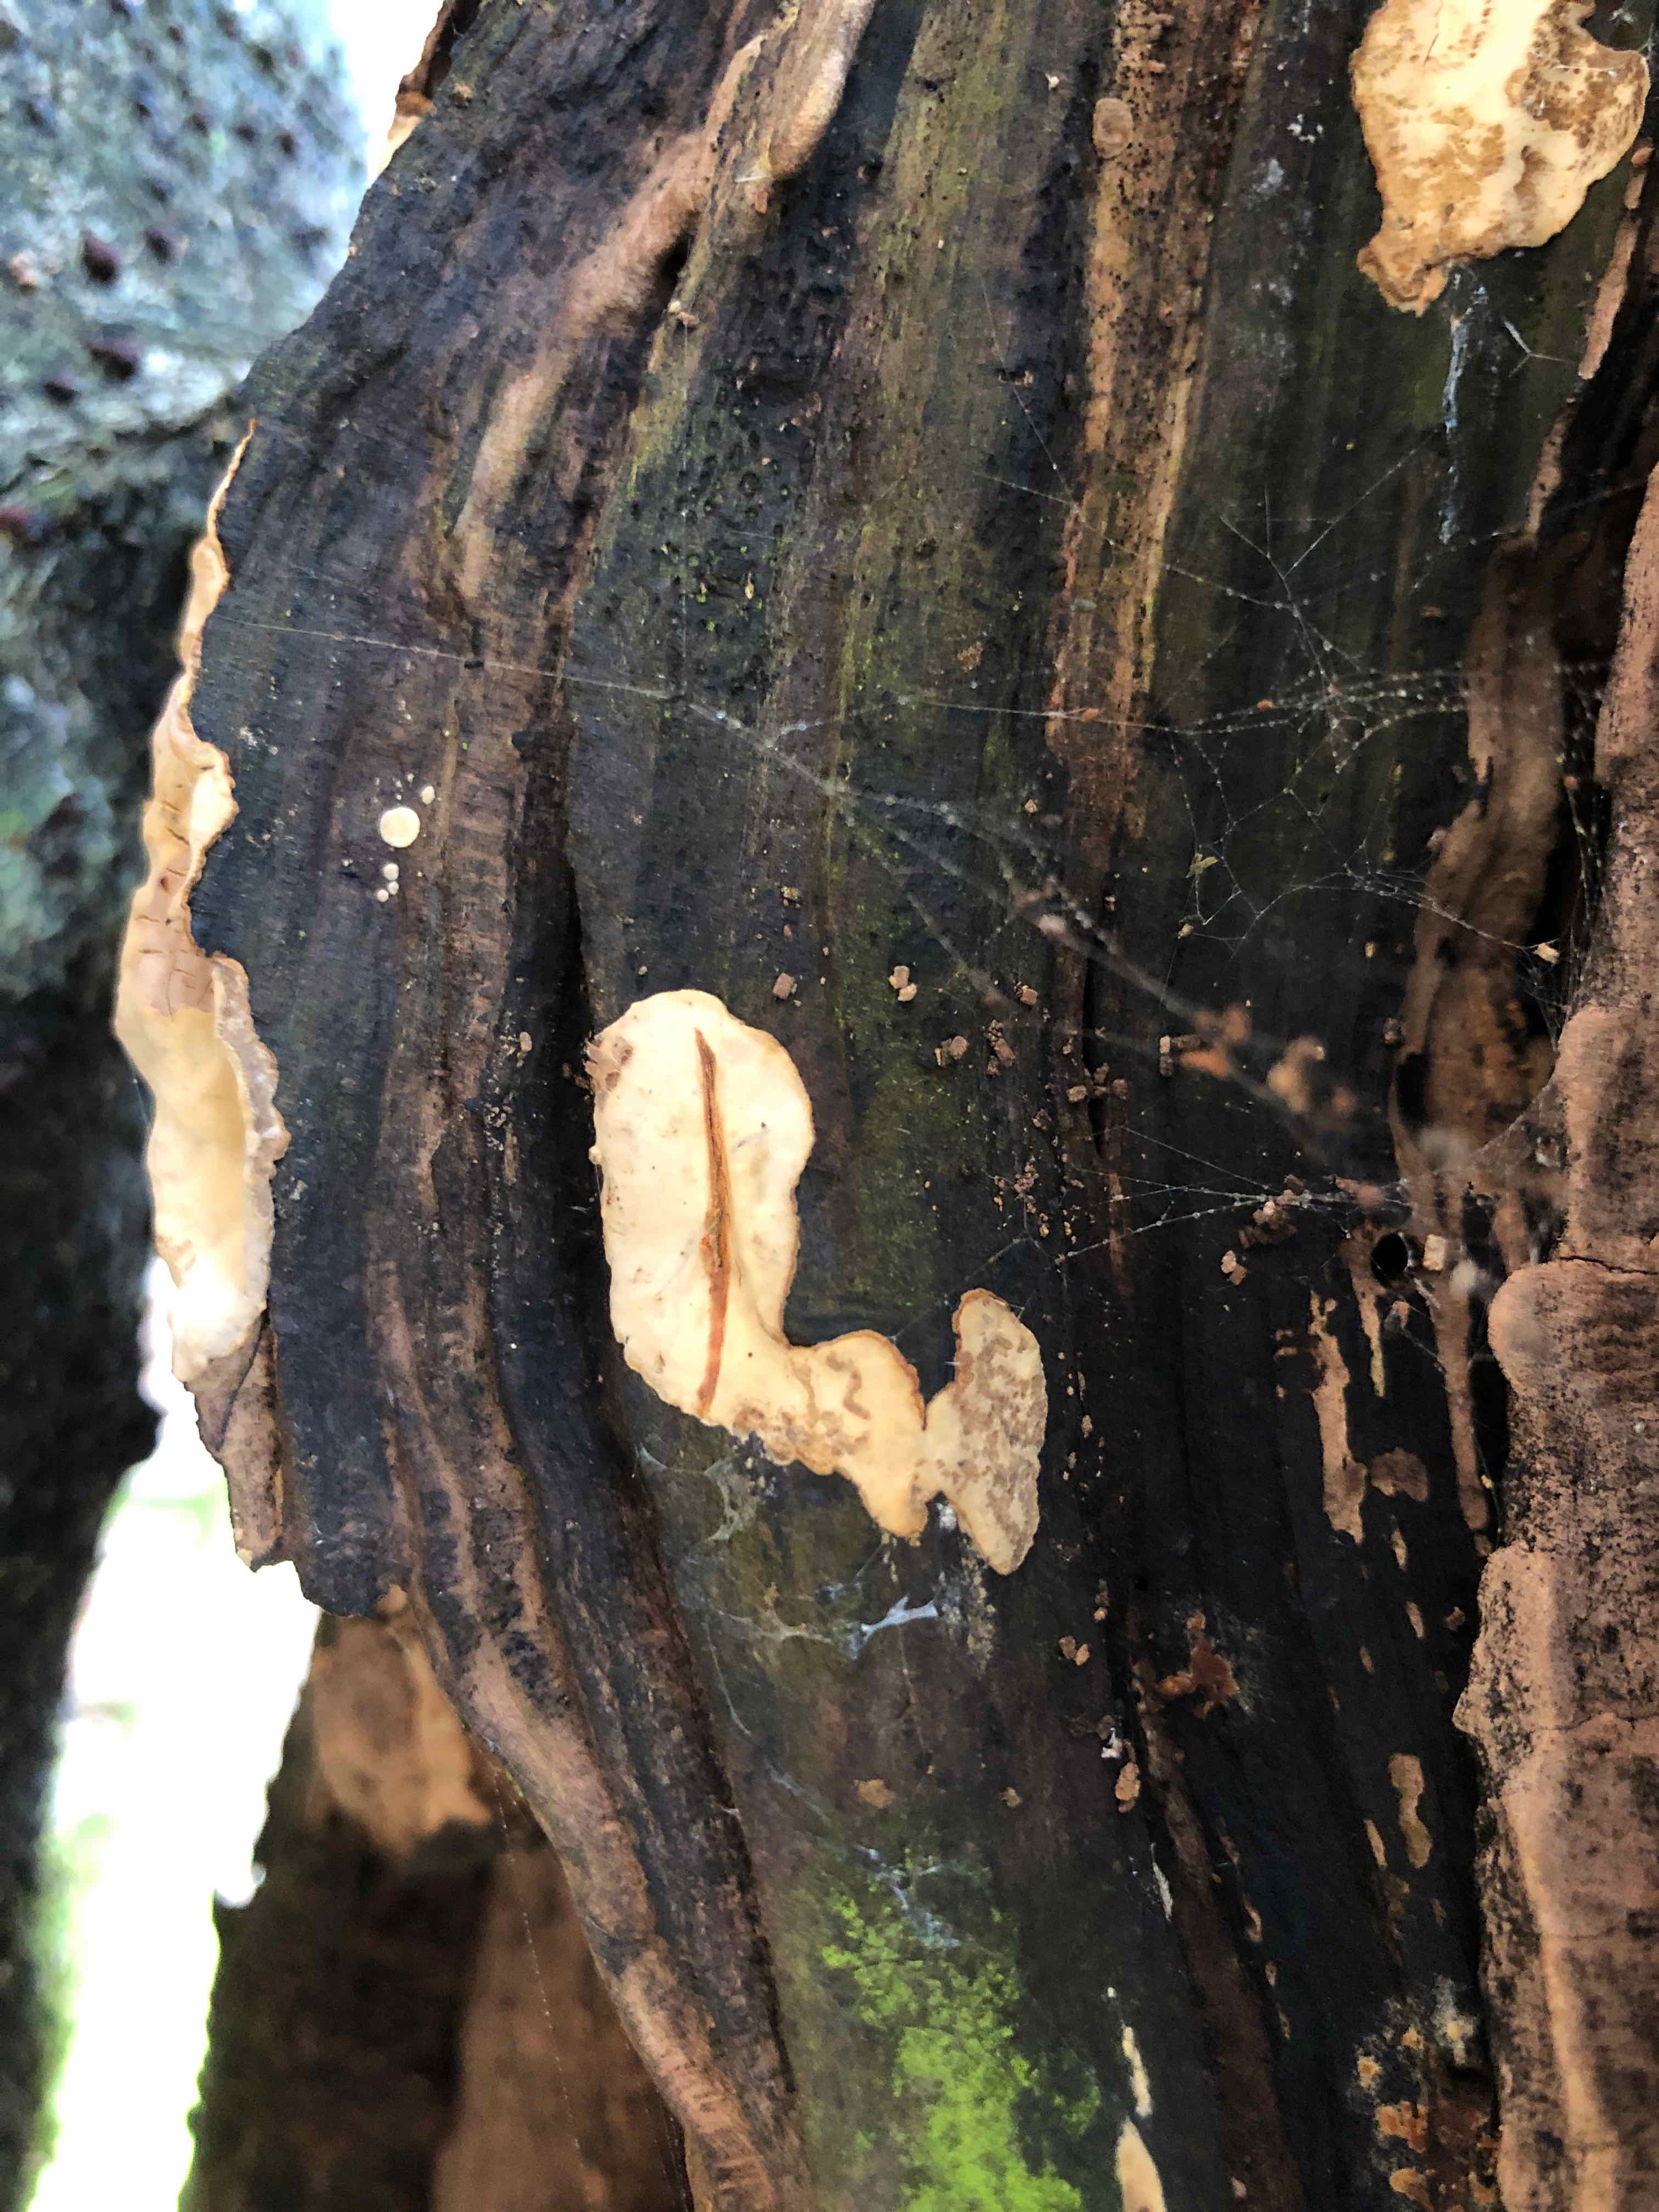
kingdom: Fungi
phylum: Basidiomycota
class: Agaricomycetes
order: Russulales
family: Stereaceae
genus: Stereum
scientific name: Stereum rugosum
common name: rynket lædersvamp
